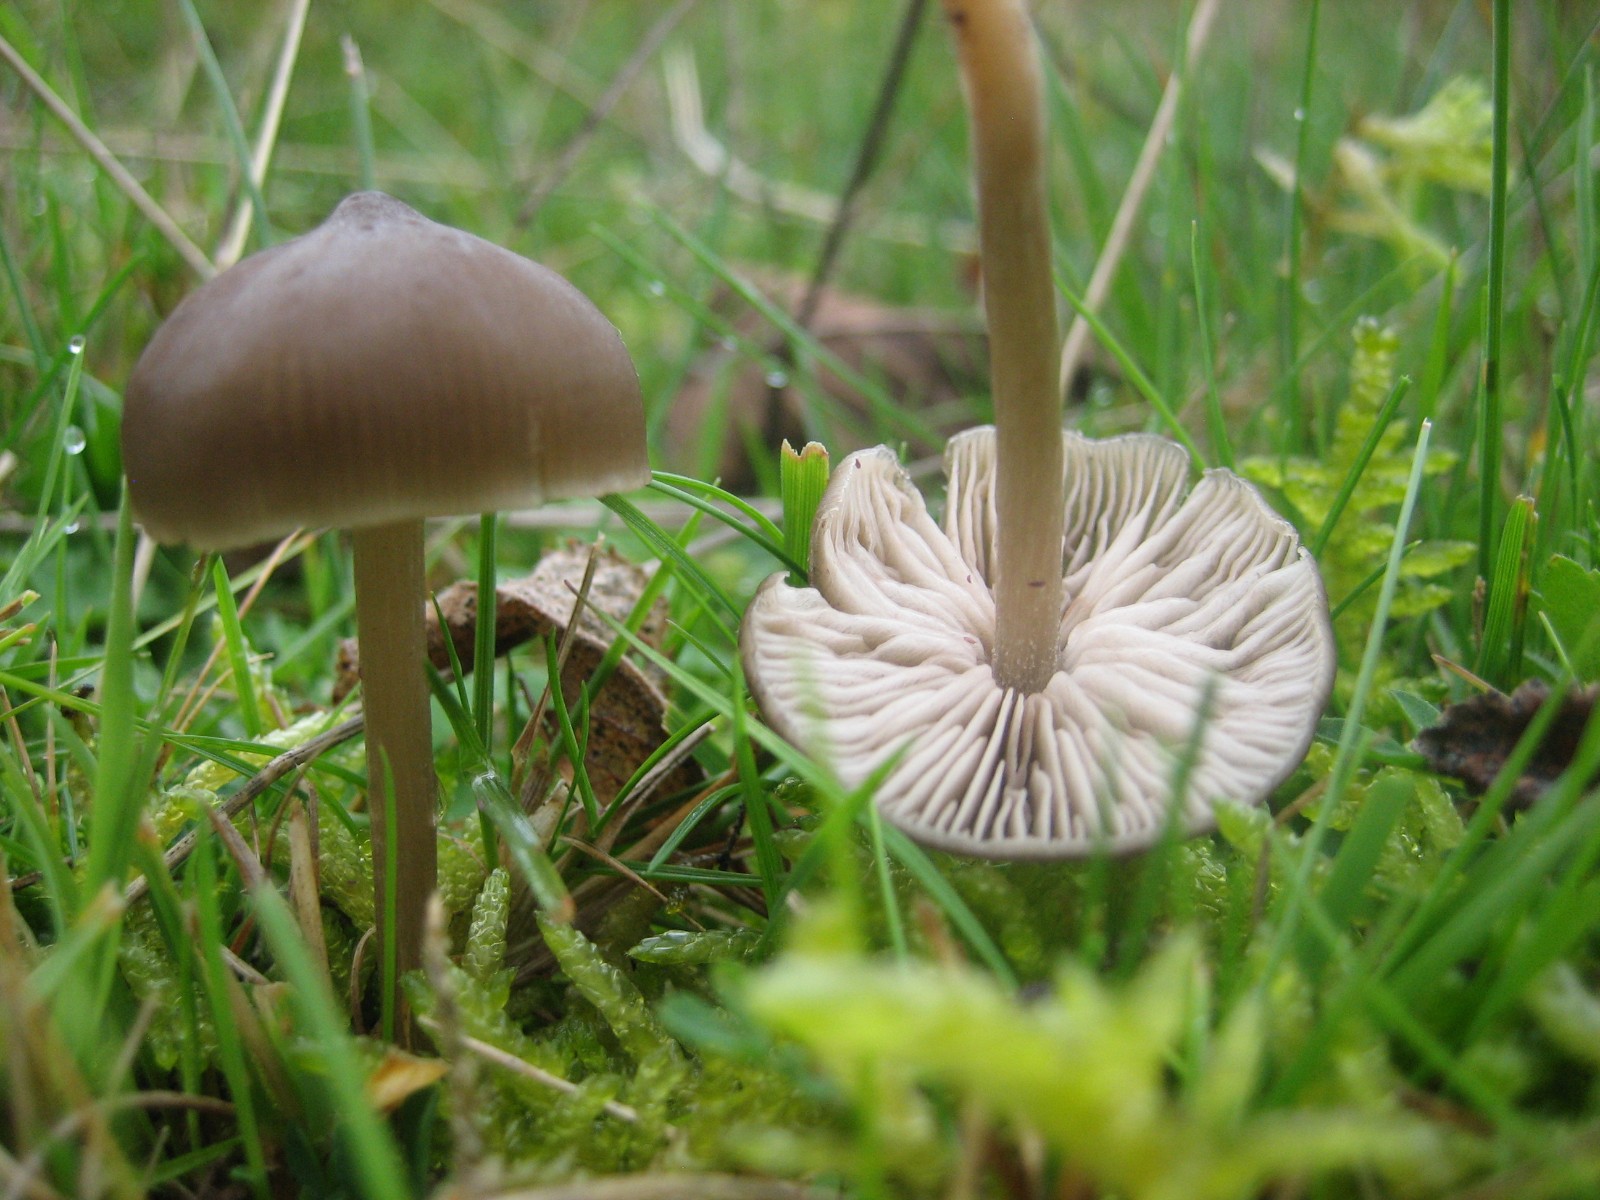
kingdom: Fungi
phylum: Basidiomycota
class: Agaricomycetes
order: Agaricales
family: Entolomataceae
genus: Entoloma
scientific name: Entoloma
